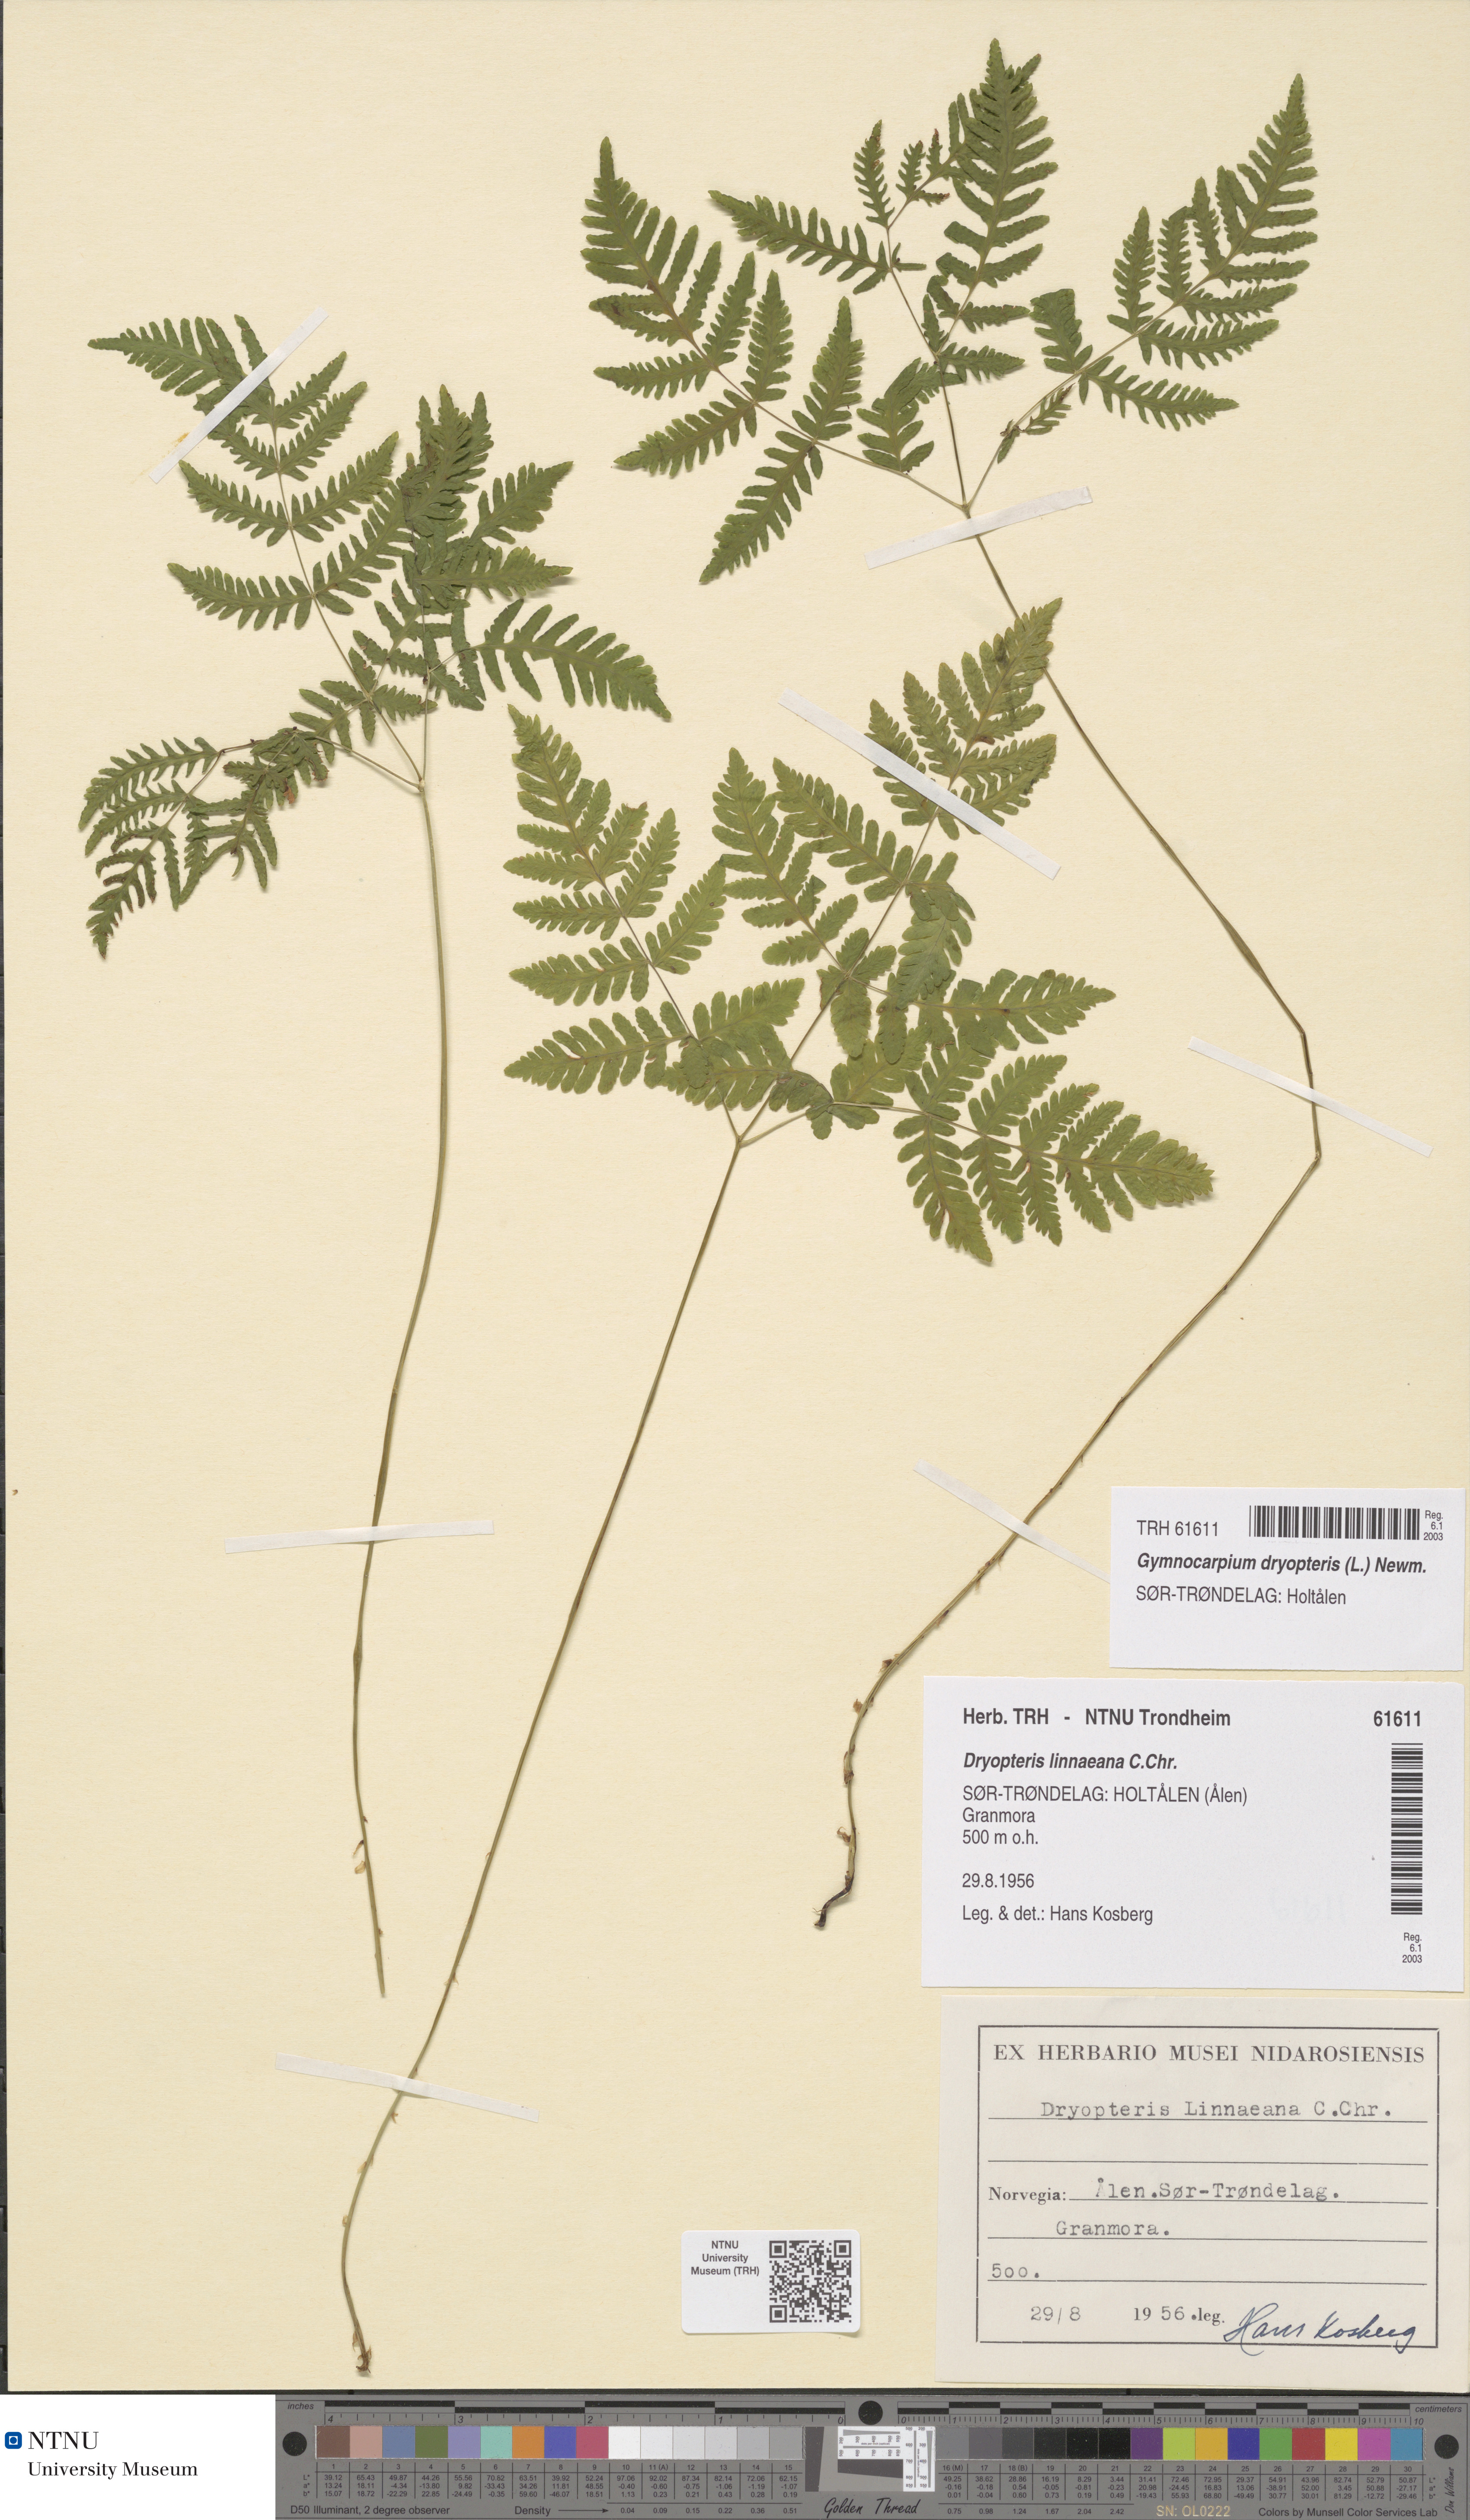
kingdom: Plantae
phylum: Tracheophyta
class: Polypodiopsida
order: Polypodiales
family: Cystopteridaceae
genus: Gymnocarpium
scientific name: Gymnocarpium dryopteris
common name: Oak fern
